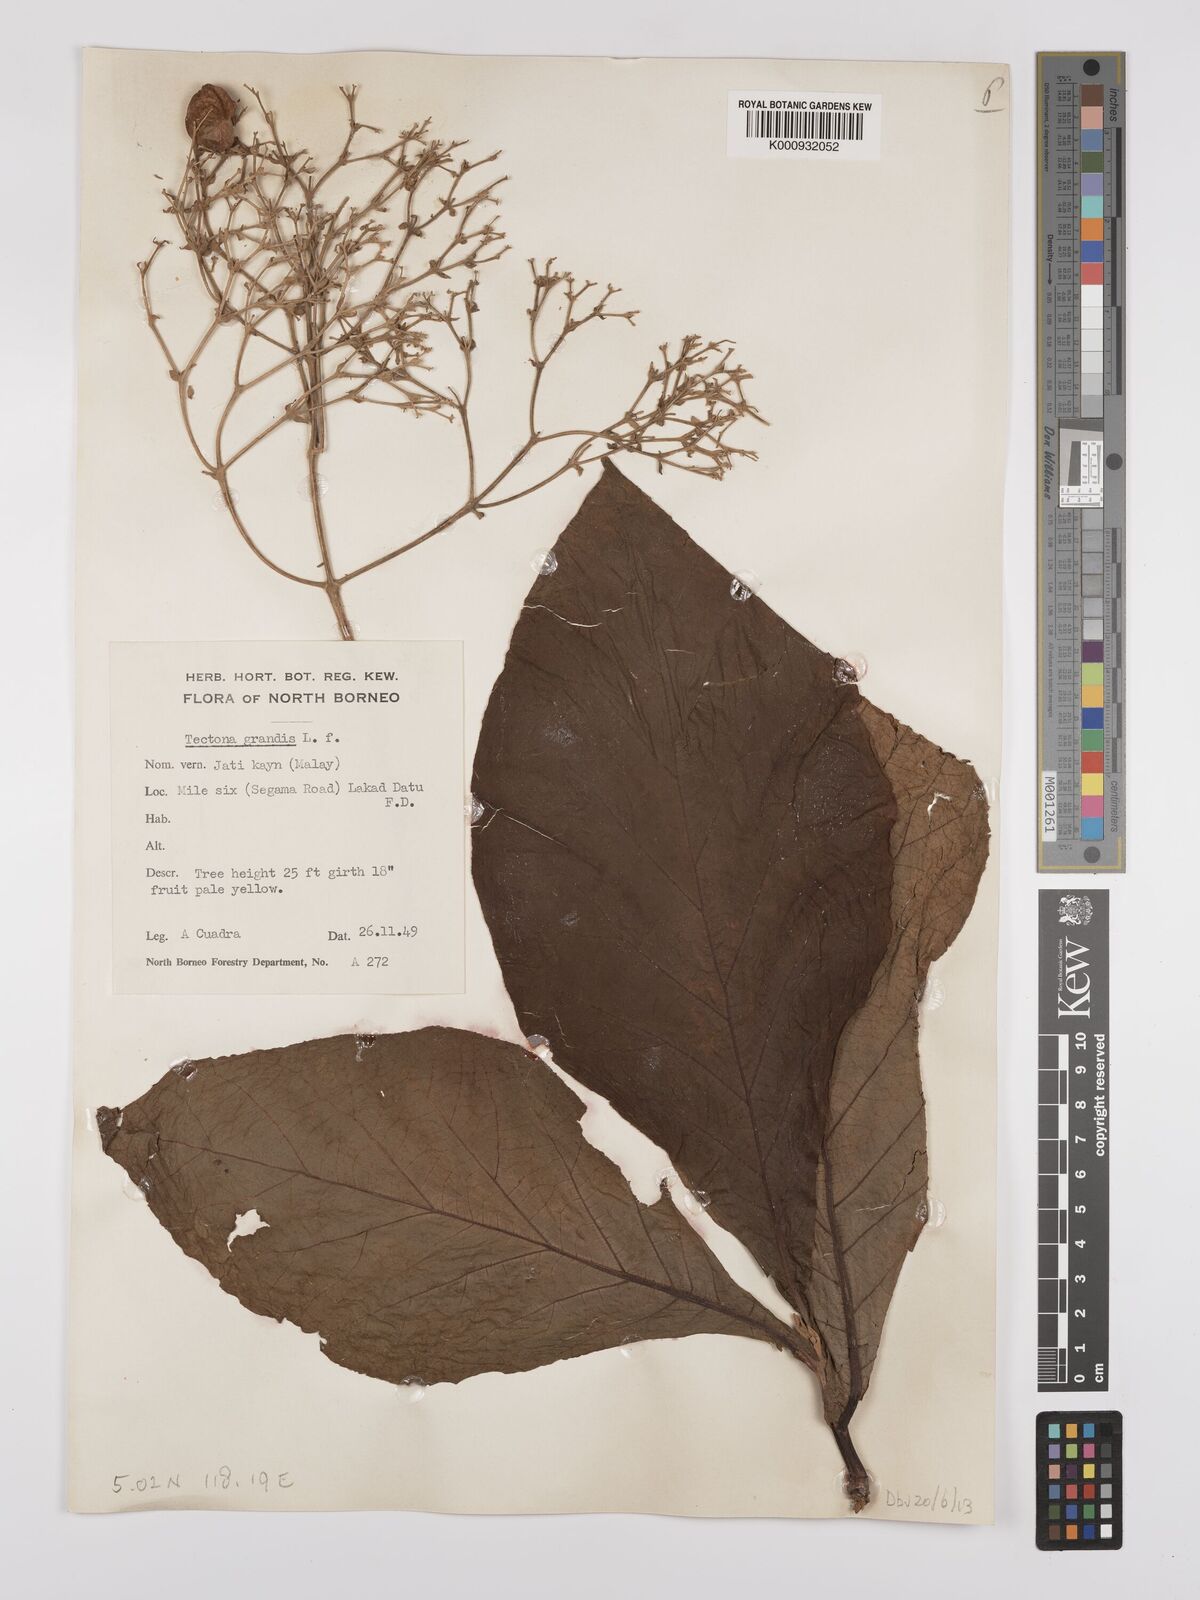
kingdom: Plantae
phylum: Tracheophyta
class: Magnoliopsida
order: Lamiales
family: Lamiaceae
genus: Tectona
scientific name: Tectona grandis
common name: Teak
